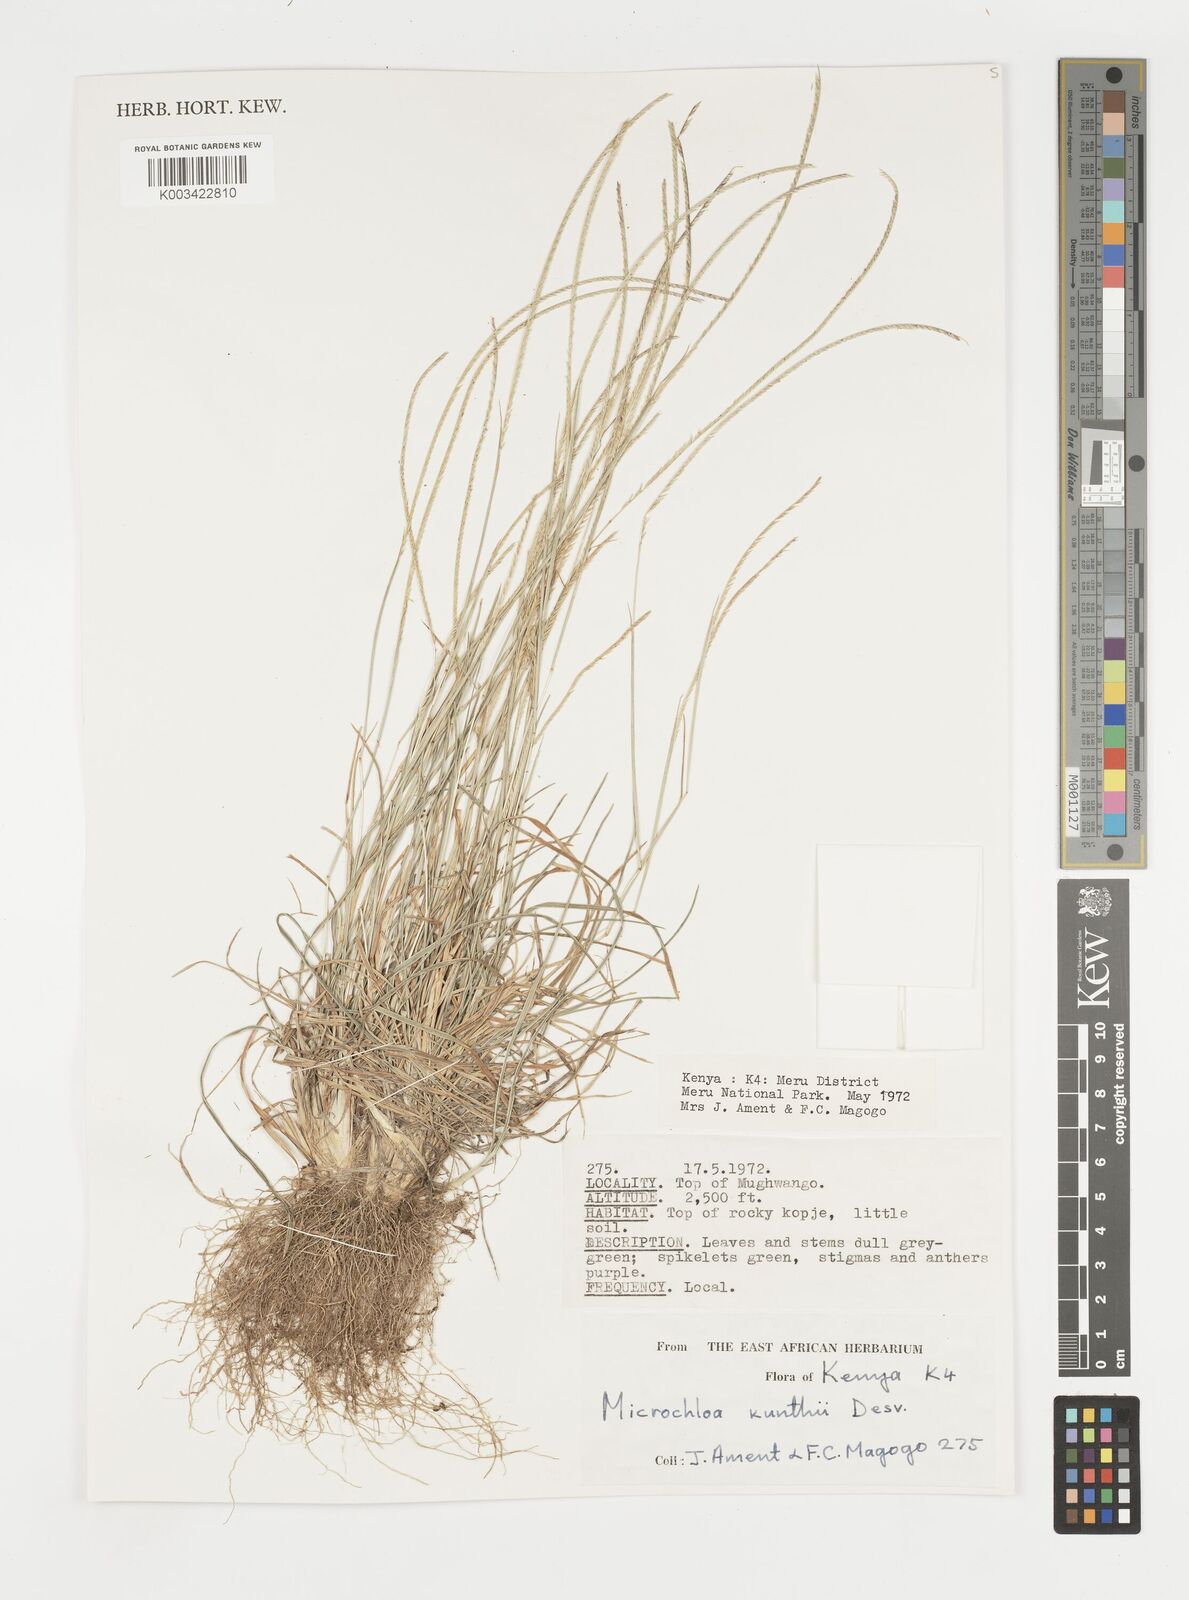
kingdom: Plantae
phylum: Tracheophyta
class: Liliopsida
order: Poales
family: Poaceae
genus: Microchloa
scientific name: Microchloa kunthii
